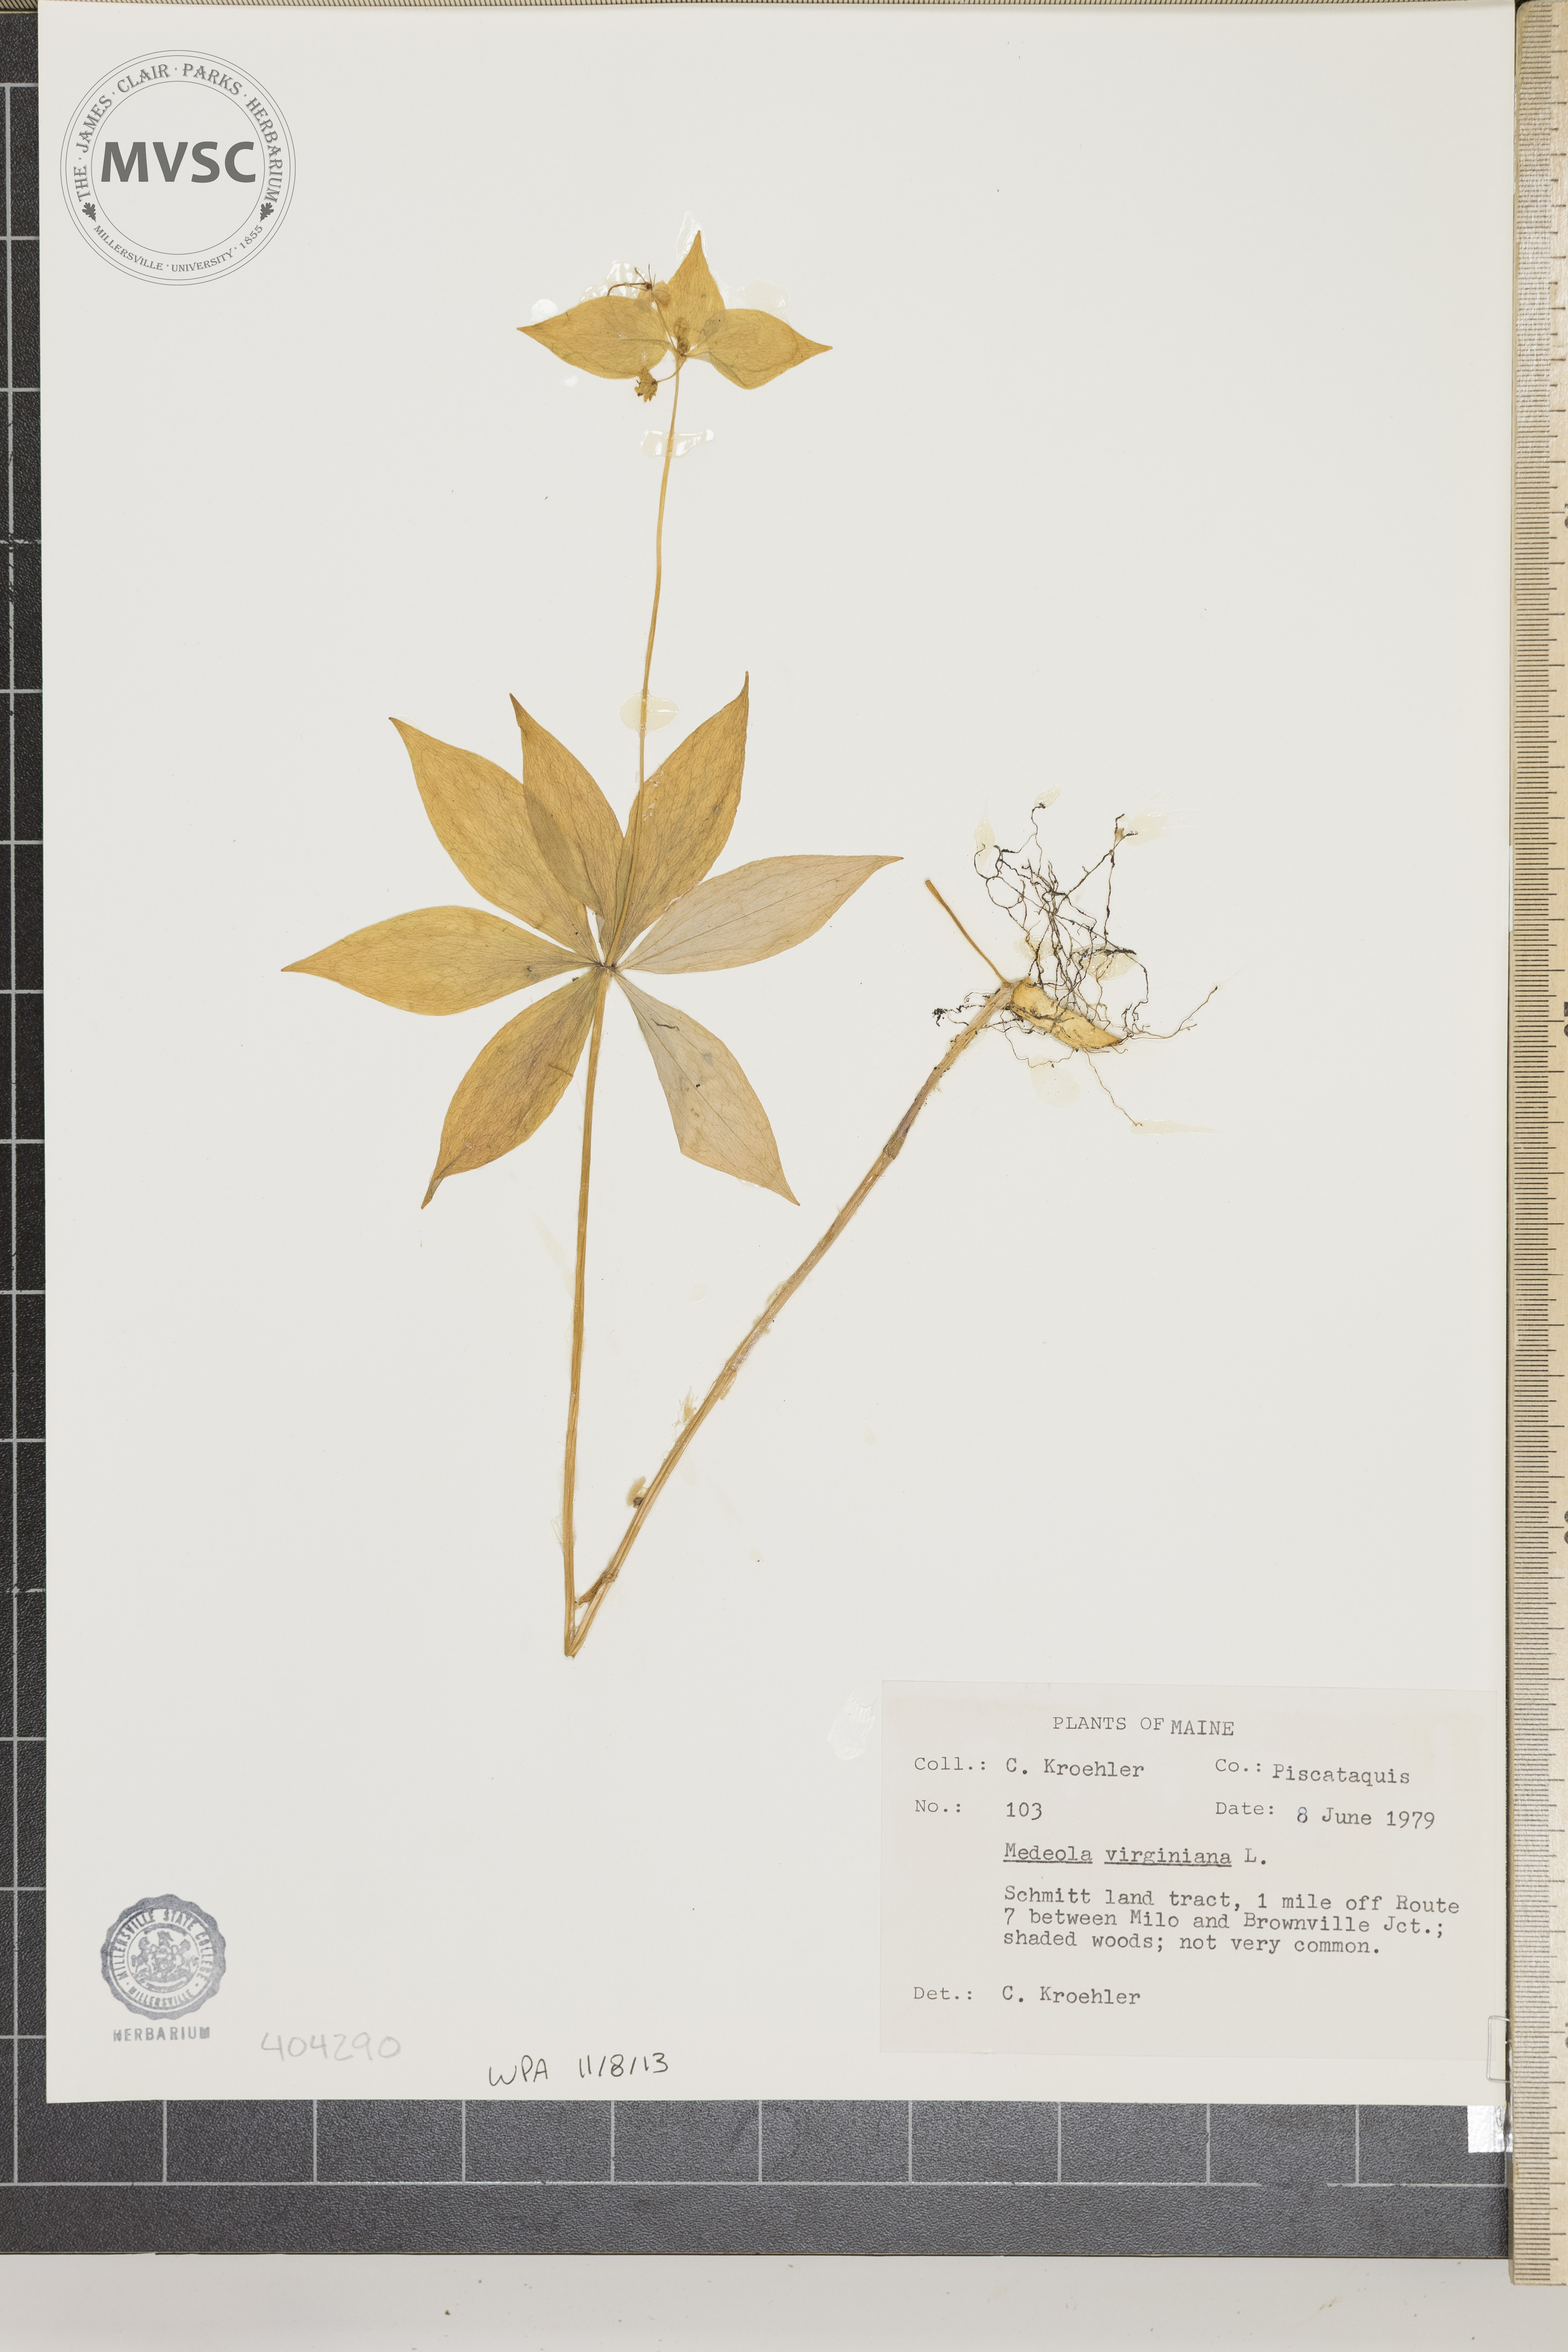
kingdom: Plantae
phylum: Tracheophyta
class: Liliopsida
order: Liliales
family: Liliaceae
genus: Medeola
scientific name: Medeola virginiana
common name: Indian cucumber-root
